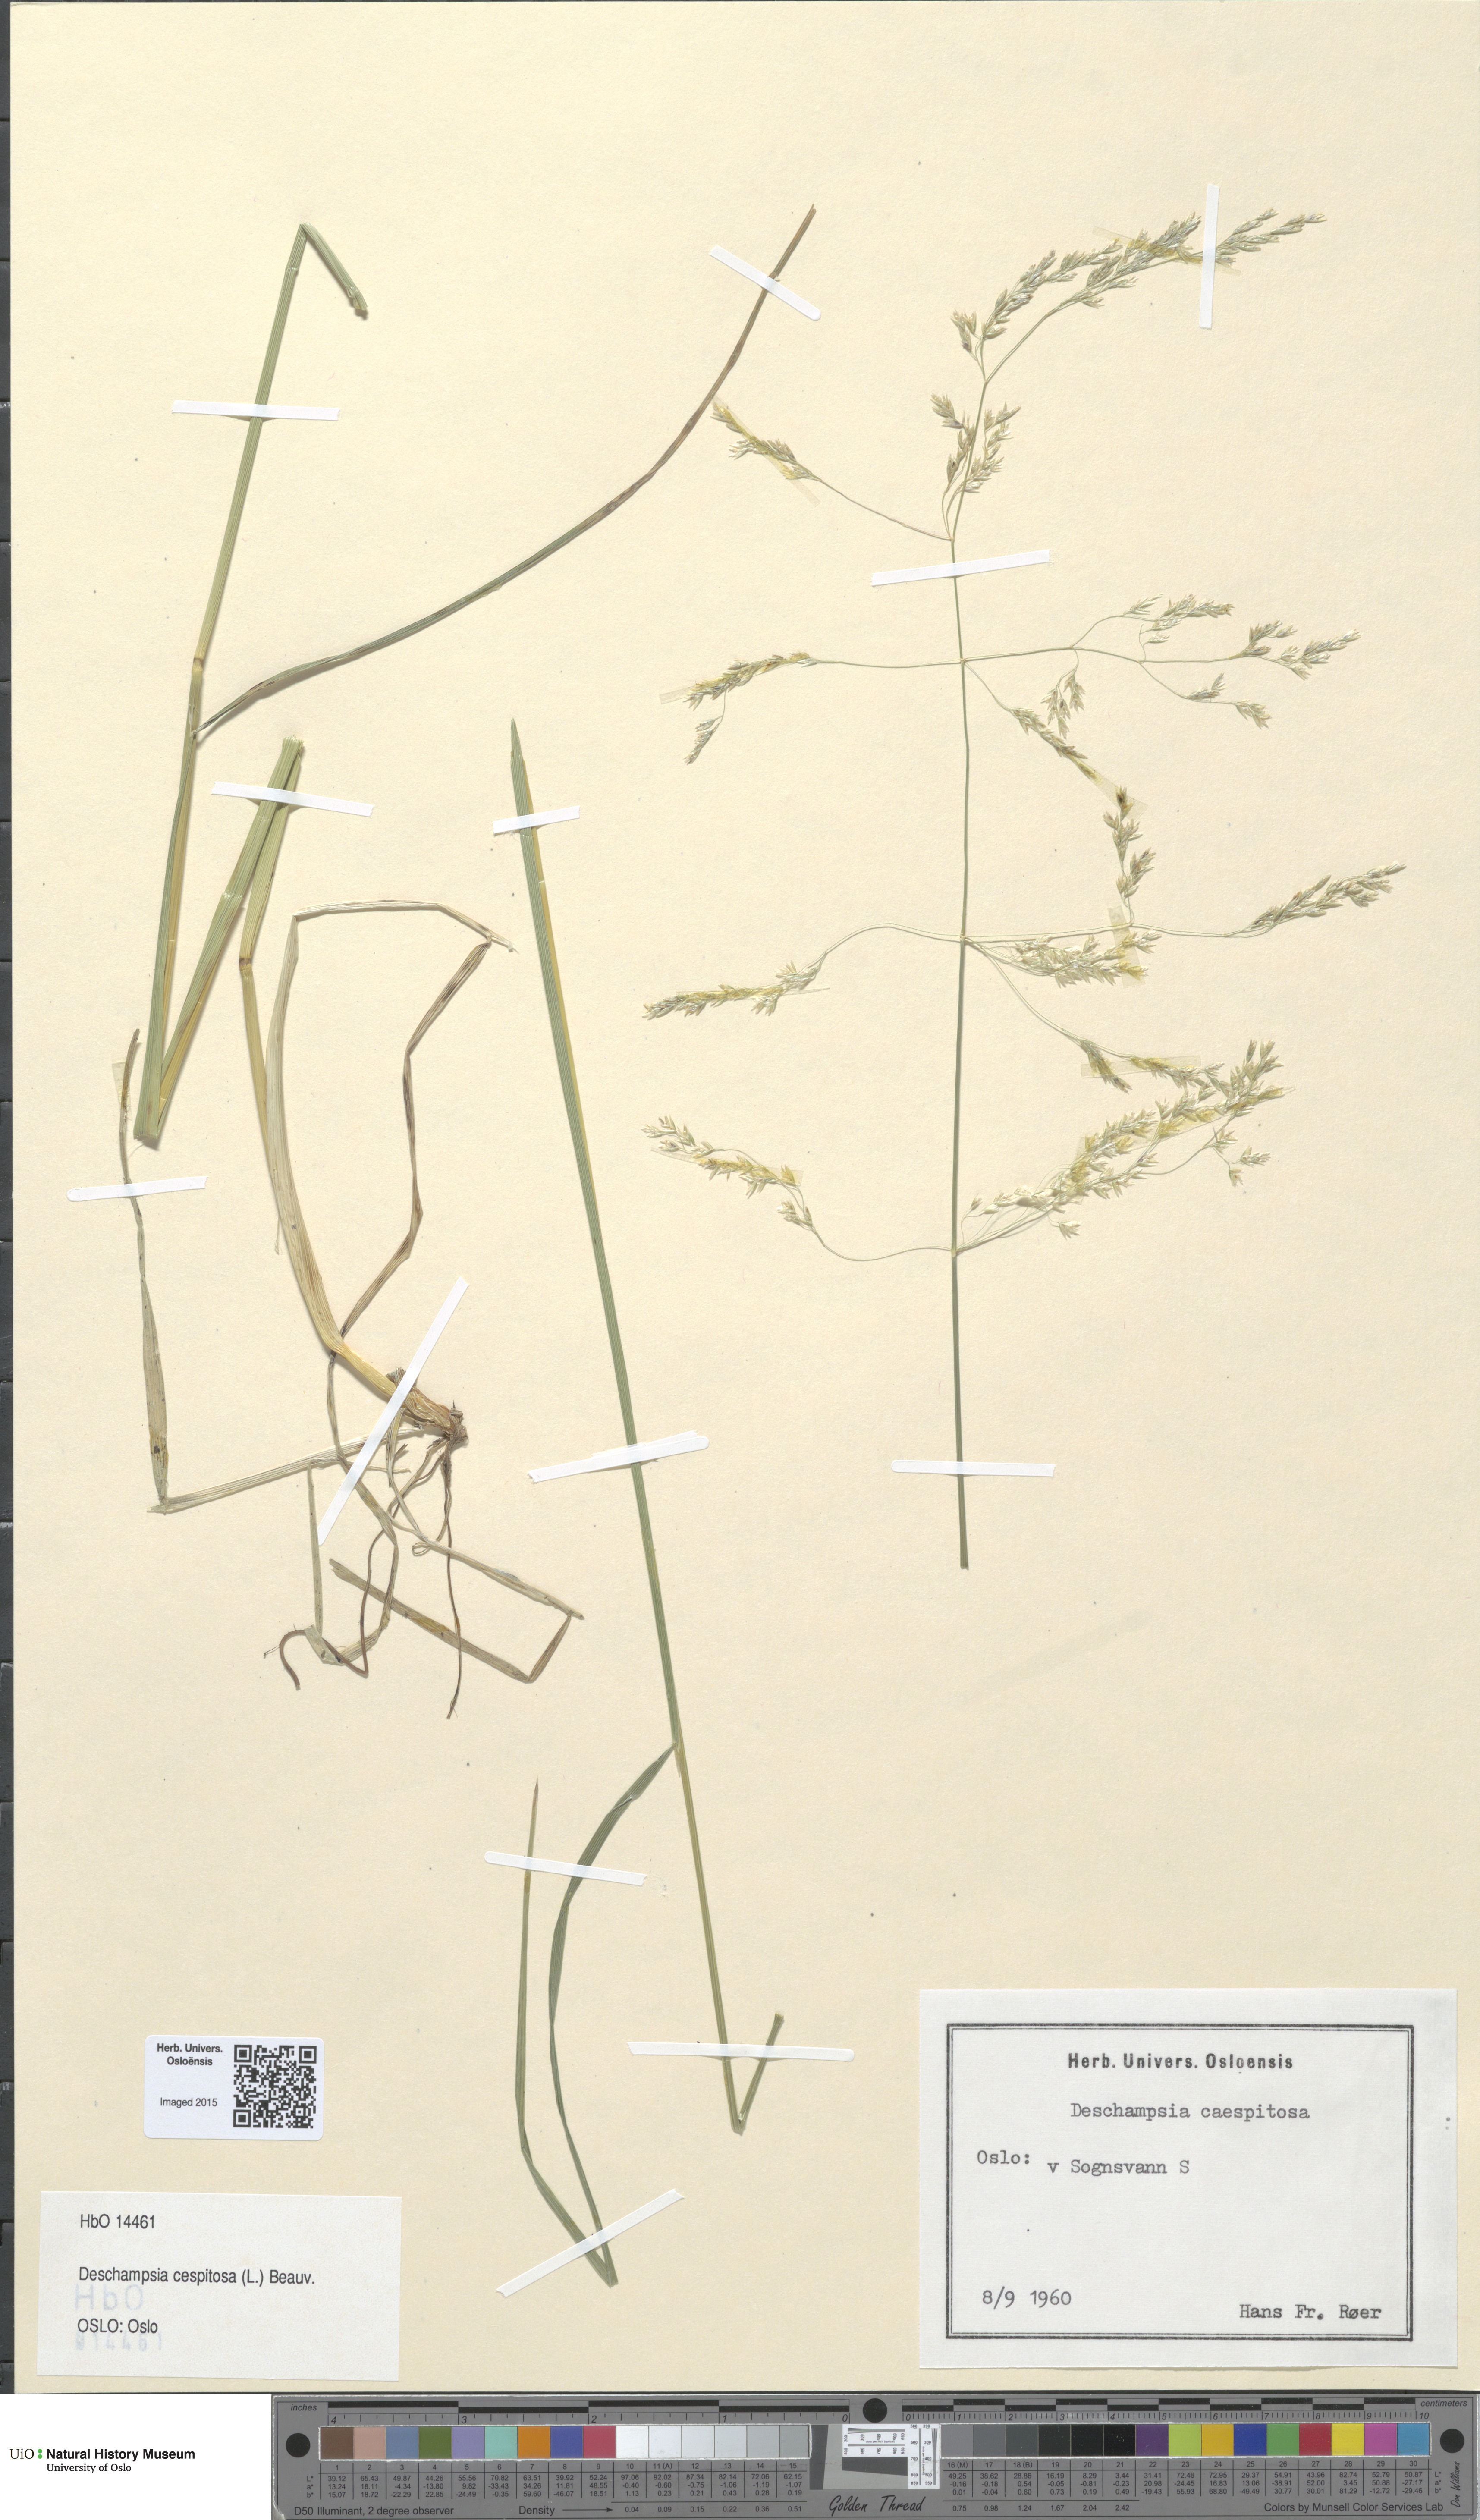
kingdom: Plantae
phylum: Tracheophyta
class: Liliopsida
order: Poales
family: Poaceae
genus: Deschampsia
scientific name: Deschampsia cespitosa
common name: Tufted hair-grass
